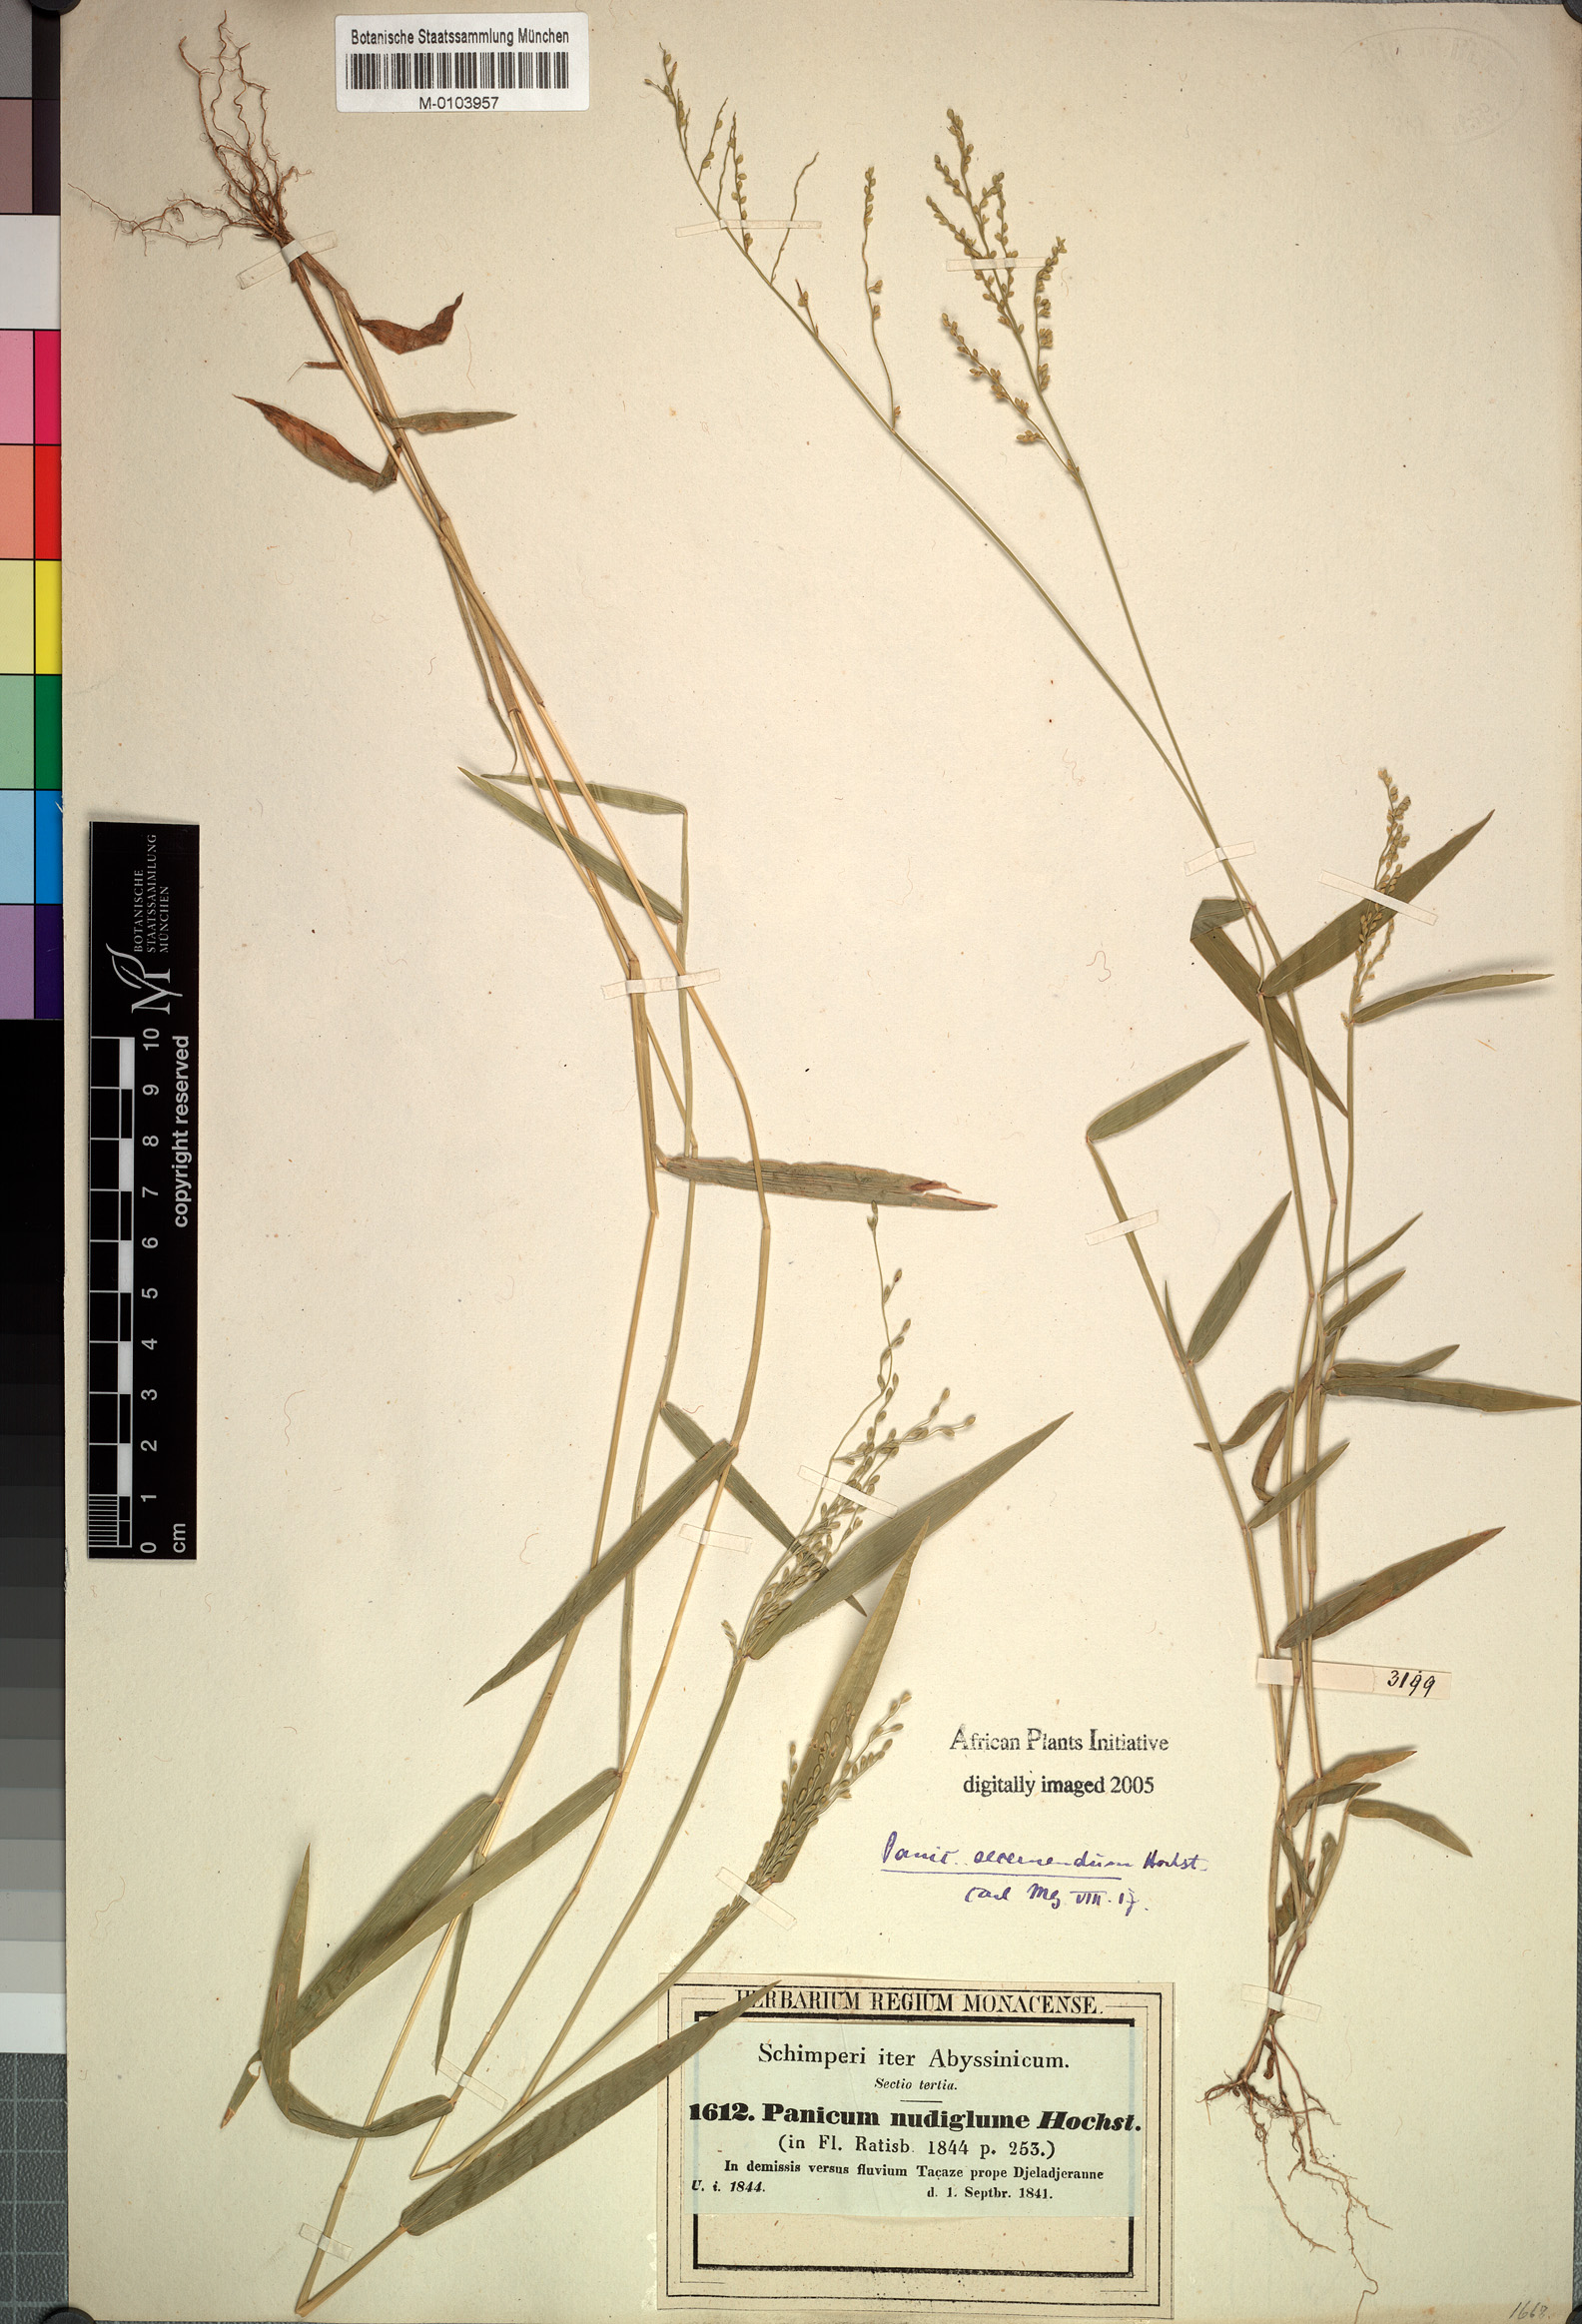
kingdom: Plantae
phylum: Tracheophyta
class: Liliopsida
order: Poales
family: Poaceae
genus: Urochloa
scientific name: Urochloa comata
